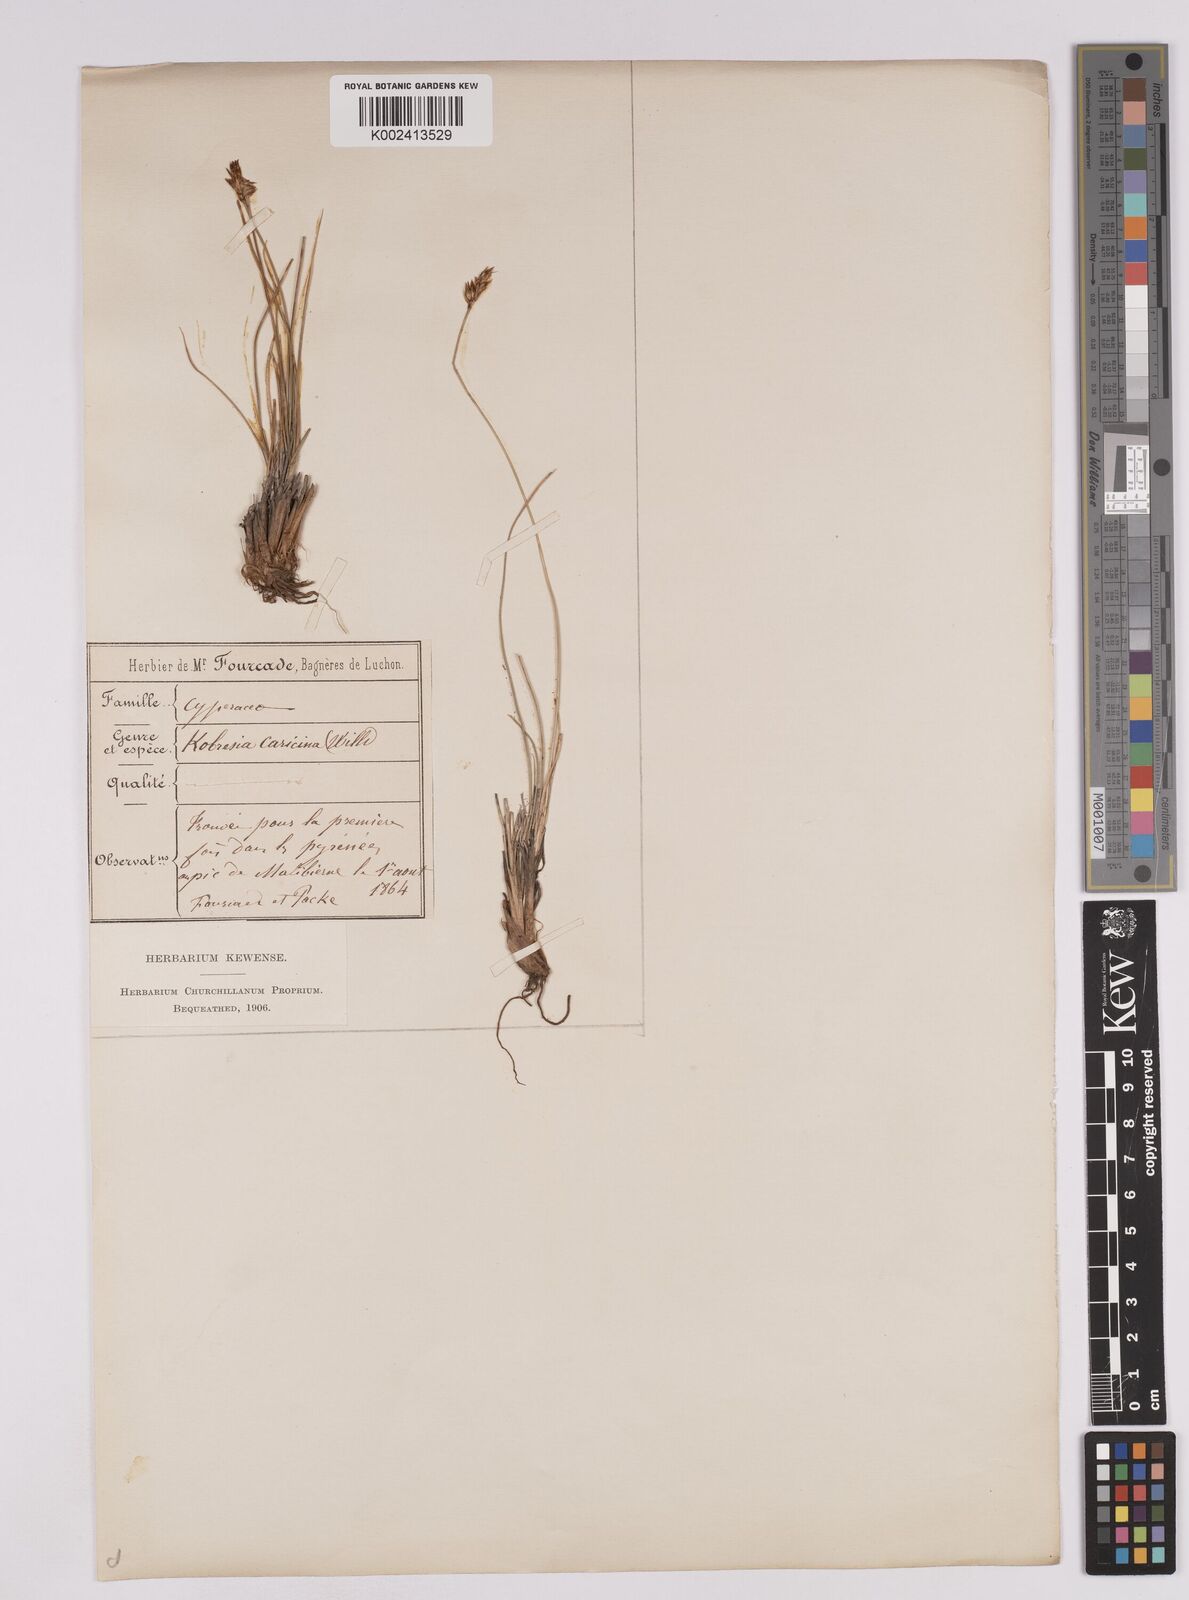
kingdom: Plantae
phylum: Tracheophyta
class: Liliopsida
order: Poales
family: Cyperaceae
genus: Carex
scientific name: Carex simpliciuscula
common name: Simple bog sedge
